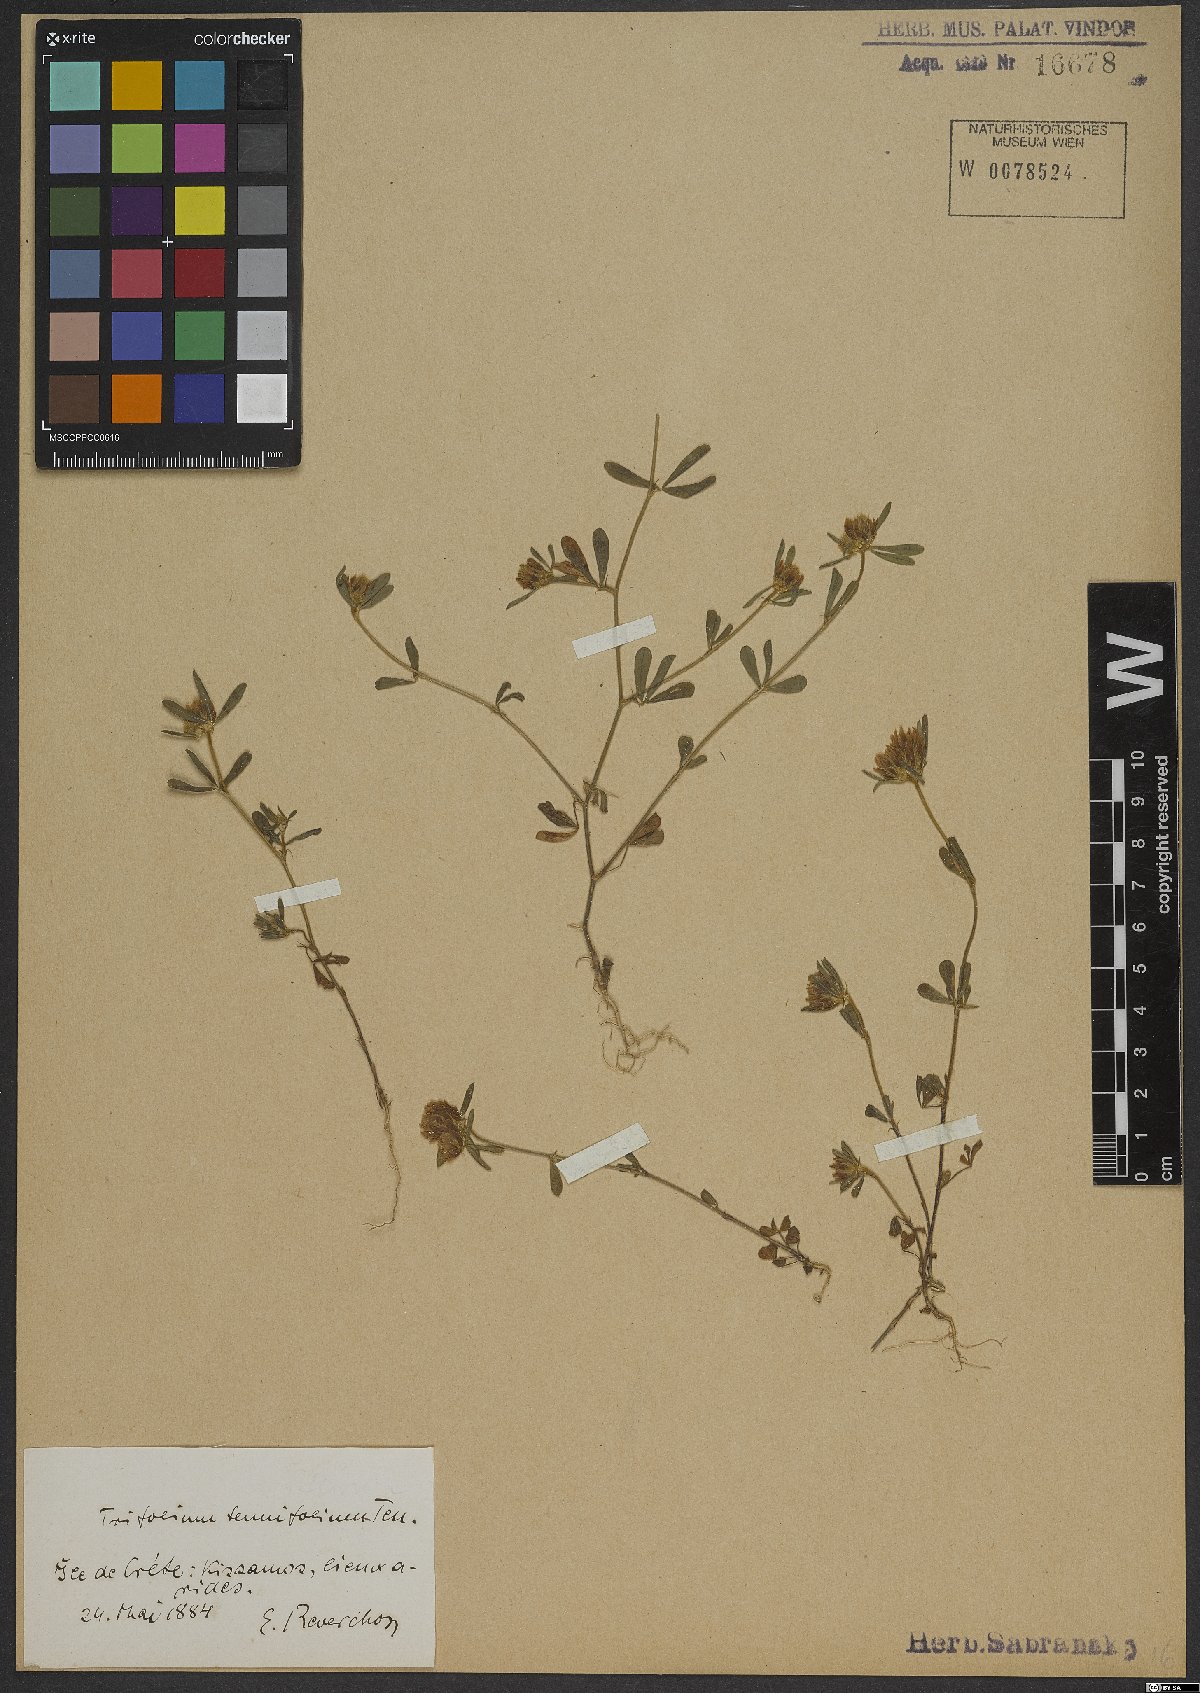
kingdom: Plantae
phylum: Tracheophyta
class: Magnoliopsida
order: Fabales
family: Fabaceae
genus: Trifolium
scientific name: Trifolium tenuifolium
